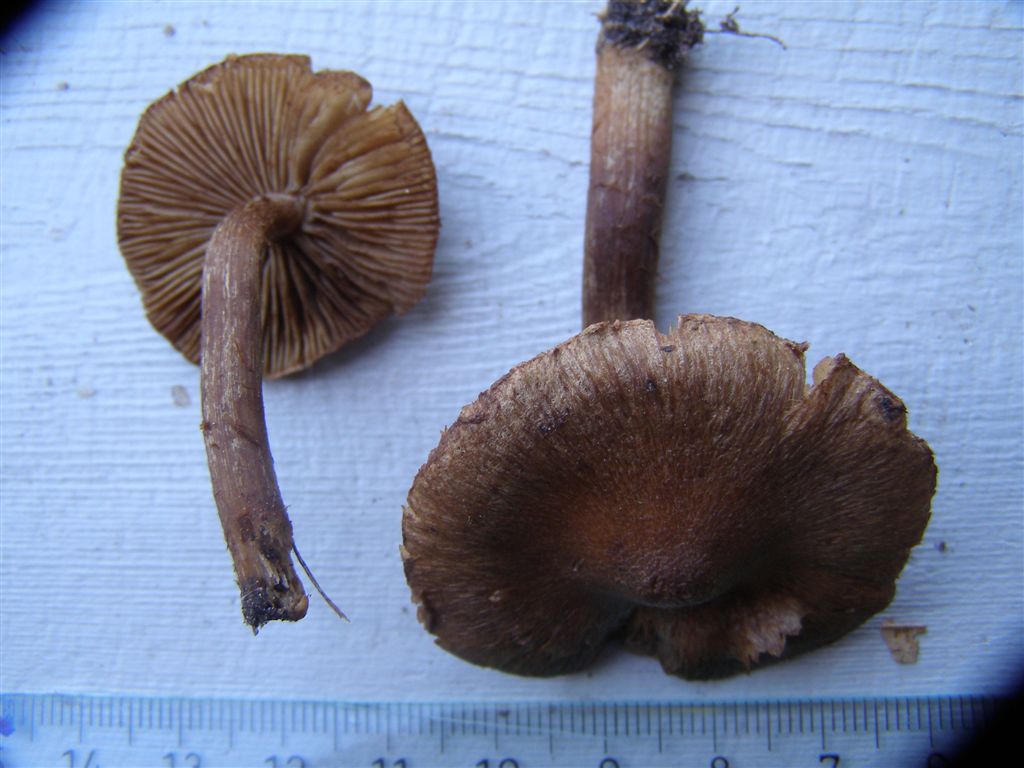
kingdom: Fungi
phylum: Basidiomycota
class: Agaricomycetes
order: Agaricales
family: Inocybaceae
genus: Inocybe
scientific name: Inocybe subcarpta
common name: plantage-trævlhat
